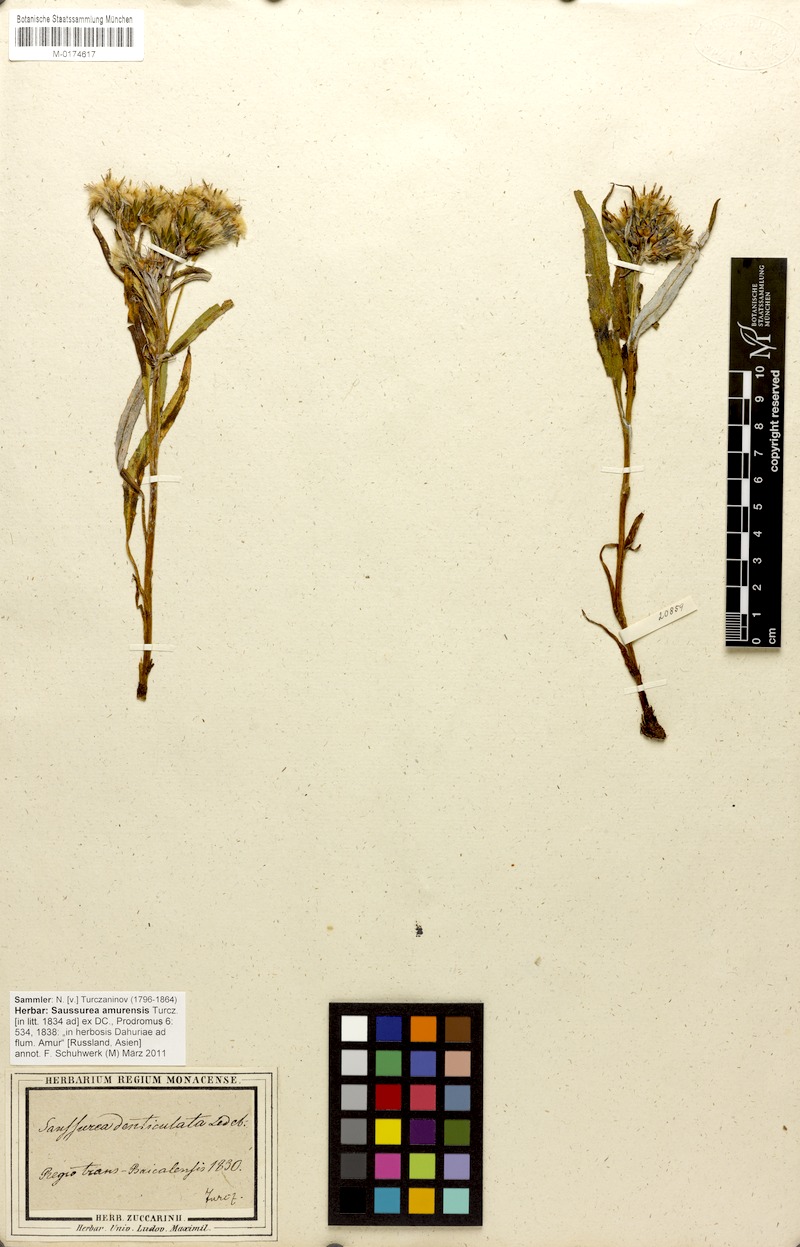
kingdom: Plantae
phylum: Tracheophyta
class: Magnoliopsida
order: Asterales
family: Asteraceae
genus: Saussurea
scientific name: Saussurea amurensis
